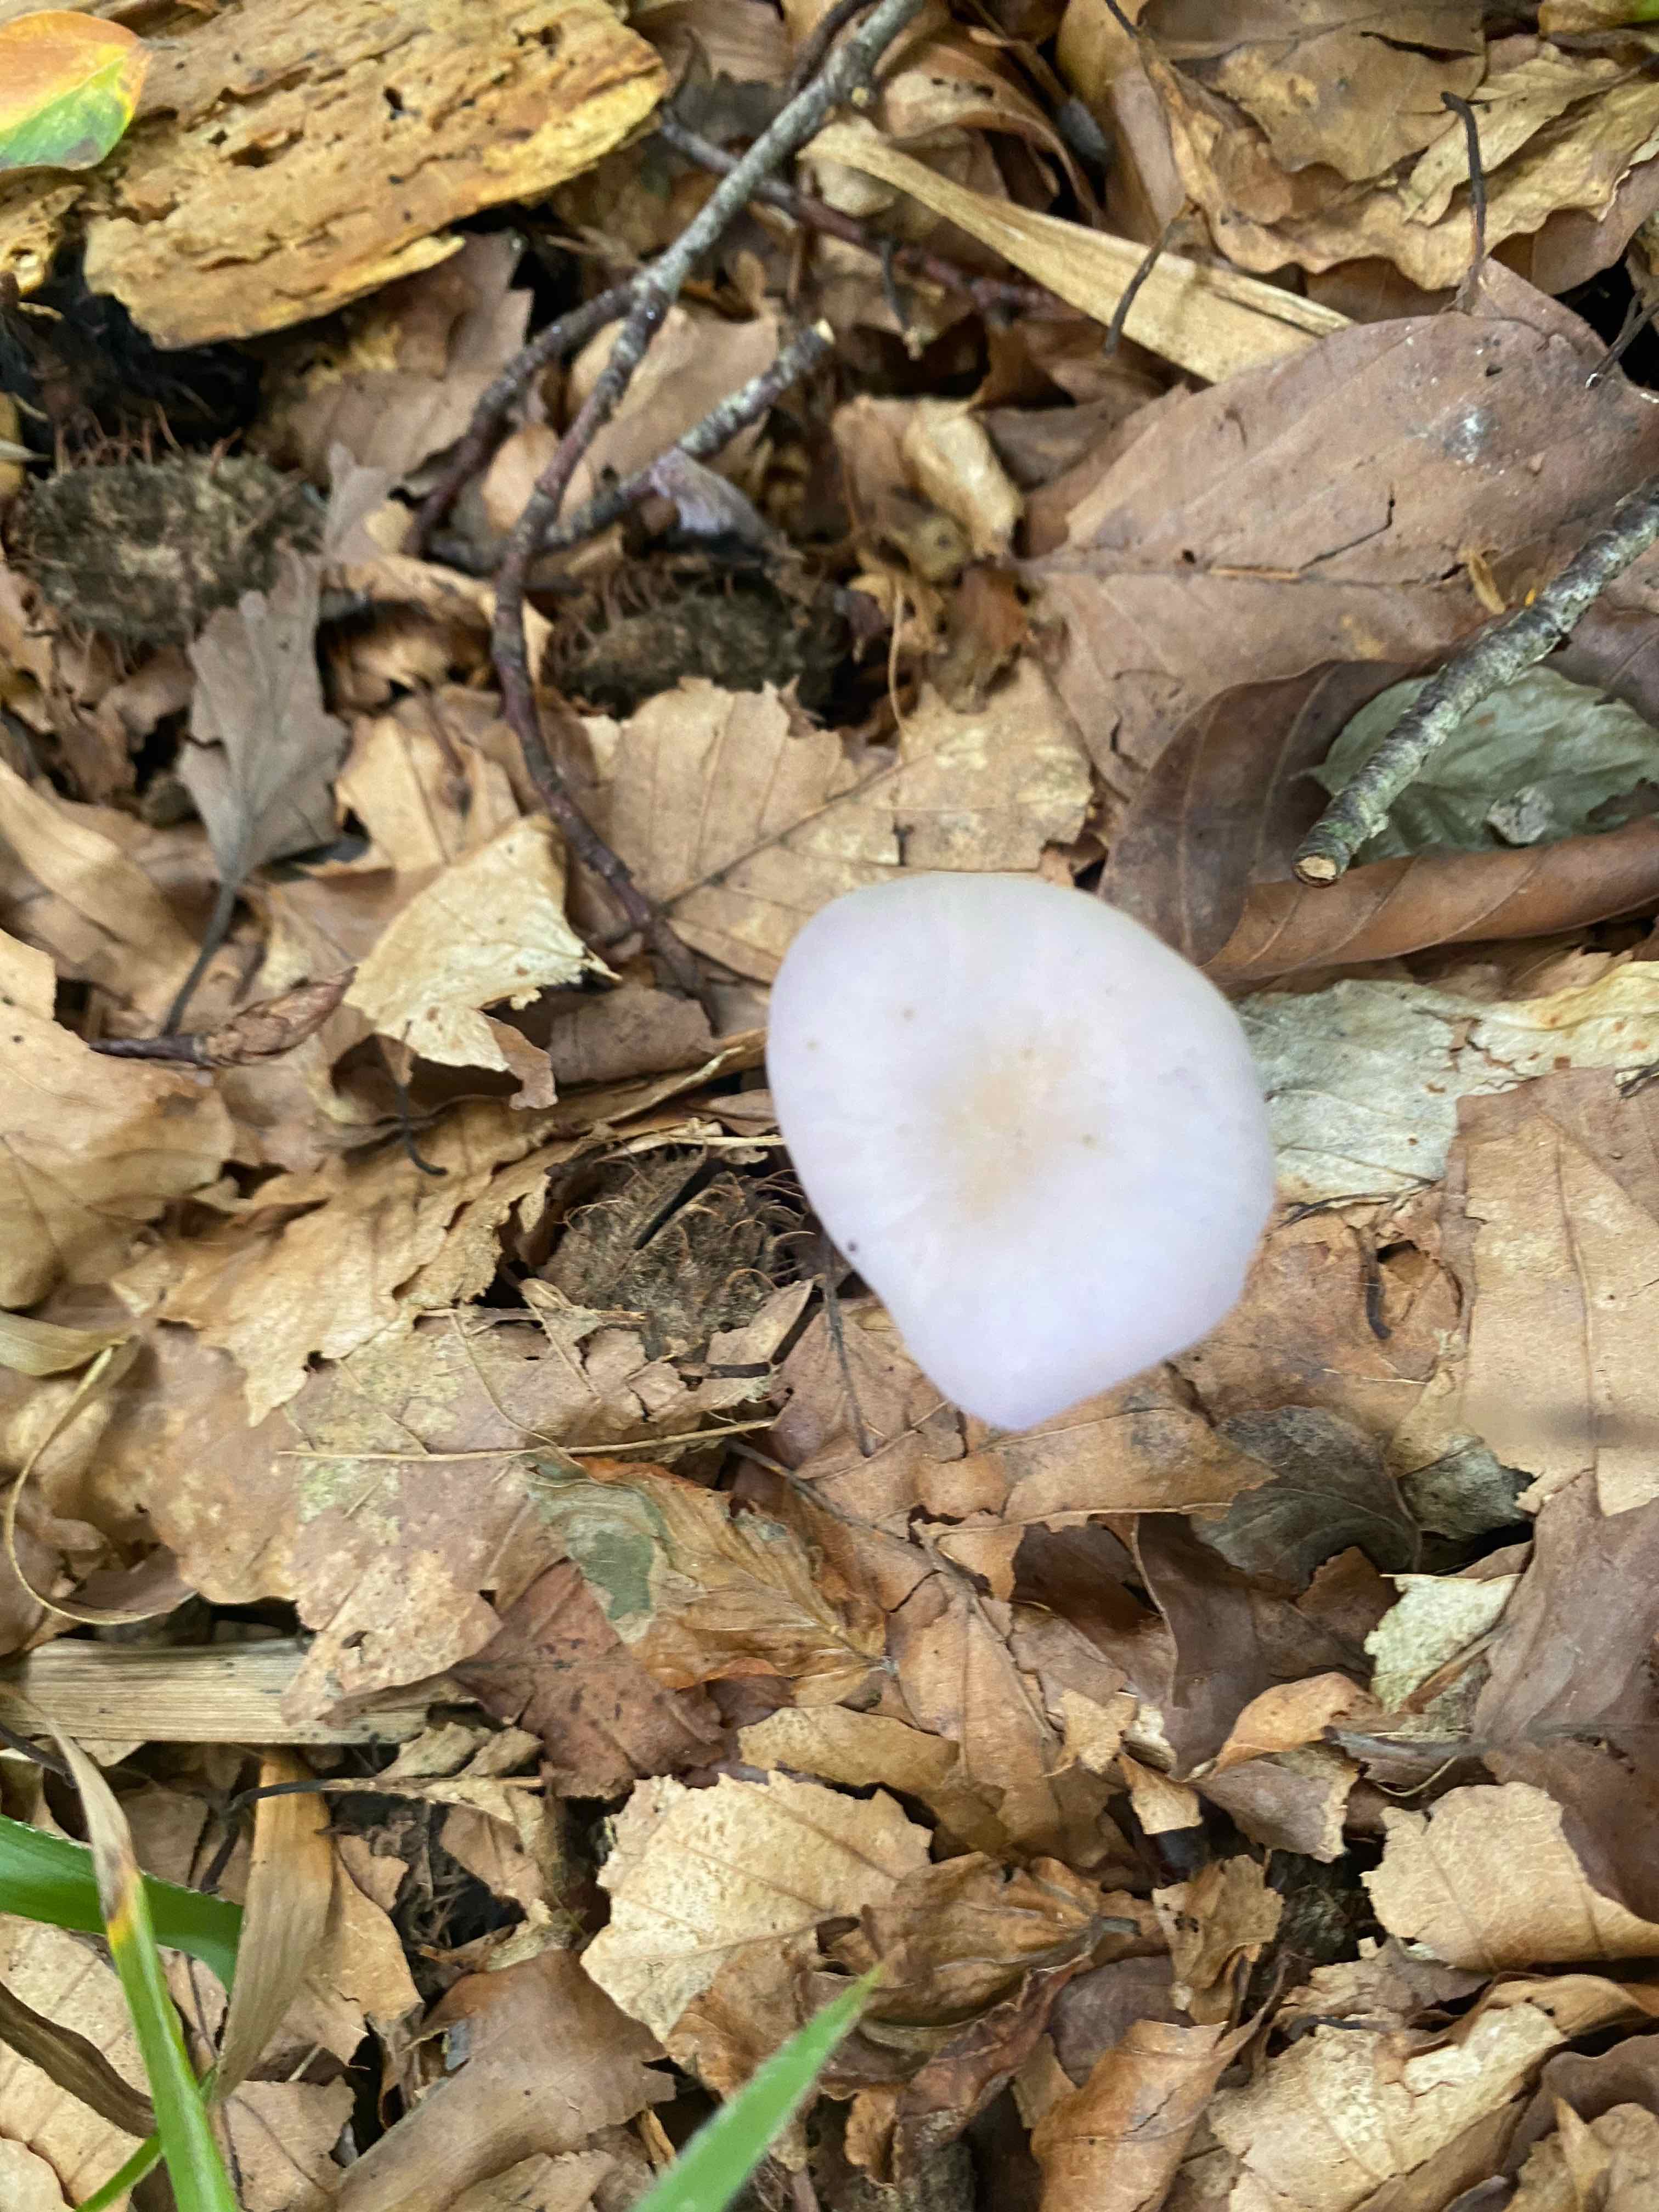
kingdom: Fungi
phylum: Basidiomycota
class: Agaricomycetes
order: Agaricales
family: Hydnangiaceae
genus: Laccaria
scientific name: Laccaria amethystina
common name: violet ametysthat
